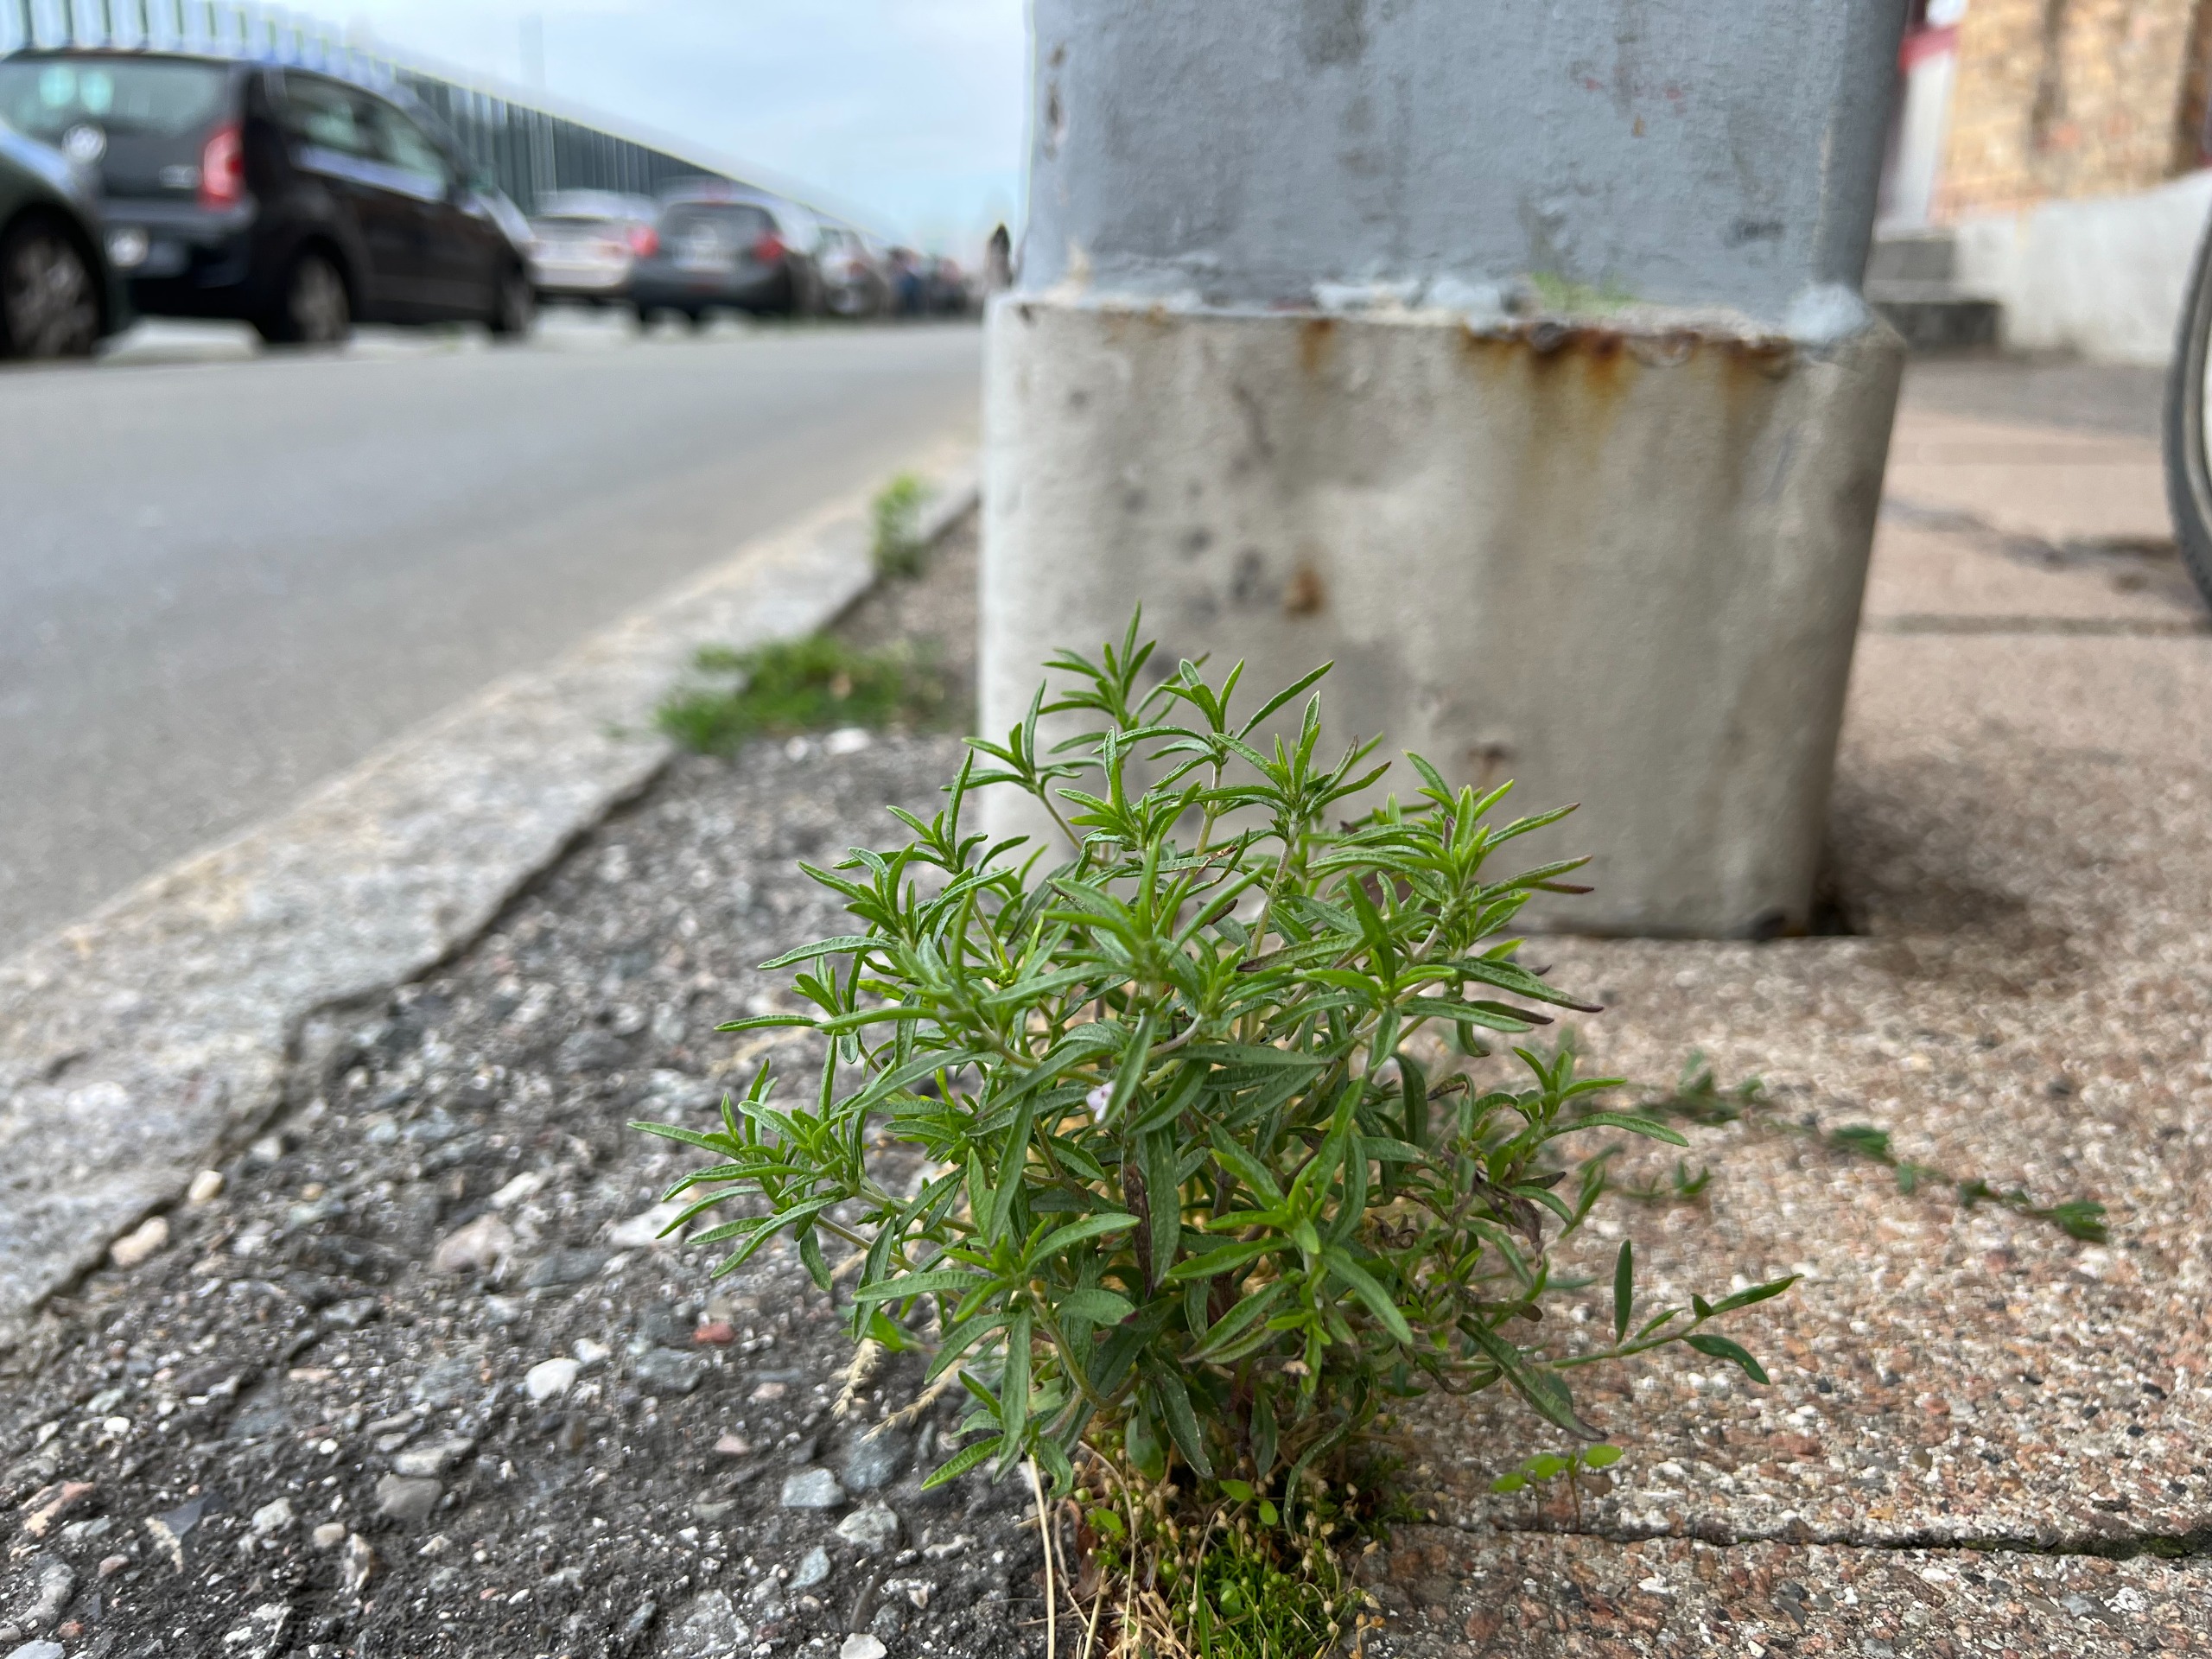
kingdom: Plantae
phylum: Tracheophyta
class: Magnoliopsida
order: Lamiales
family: Lamiaceae
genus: Satureja
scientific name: Satureja hortensis
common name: Almindelig sar
